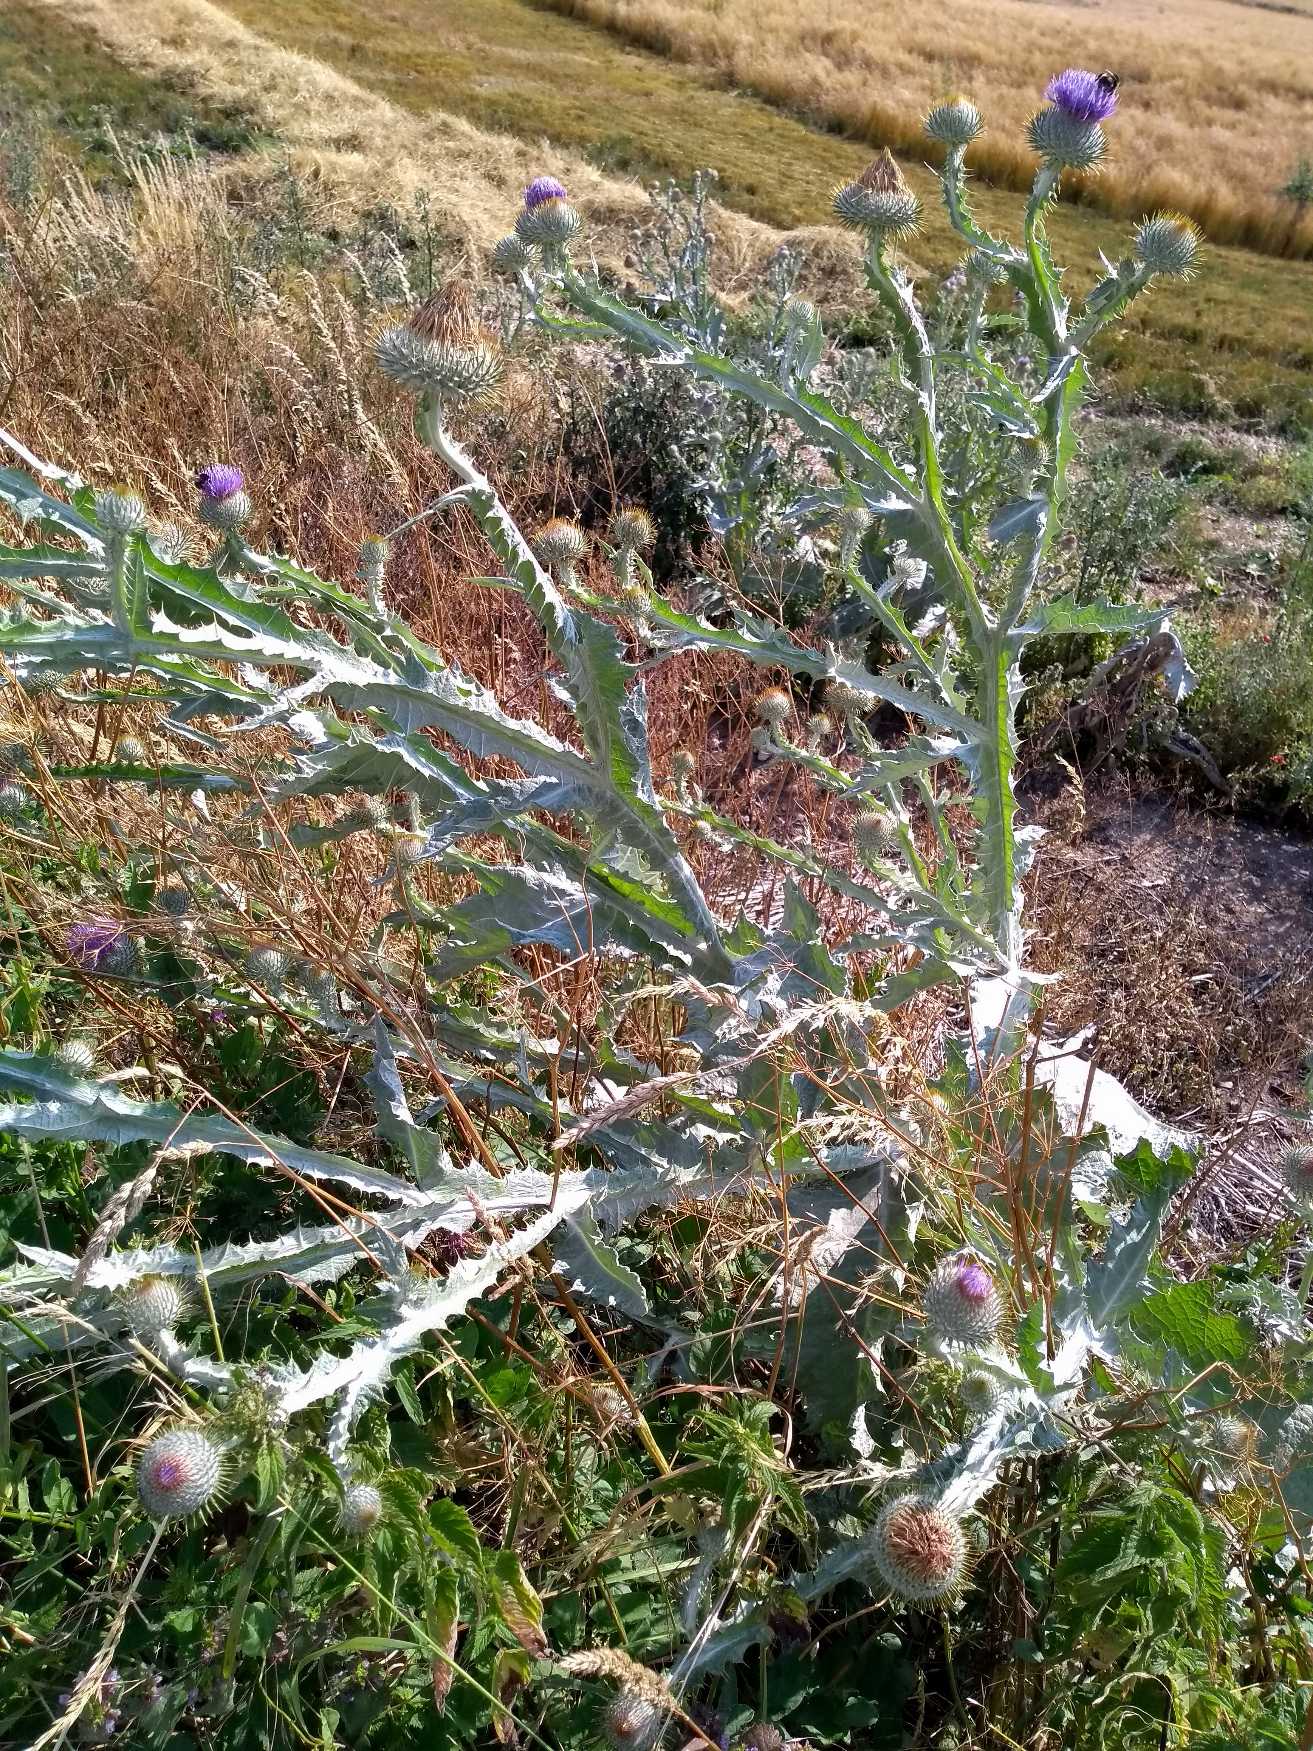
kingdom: Plantae
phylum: Tracheophyta
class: Magnoliopsida
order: Asterales
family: Asteraceae
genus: Onopordum
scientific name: Onopordum acanthium
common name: Æselfoder
